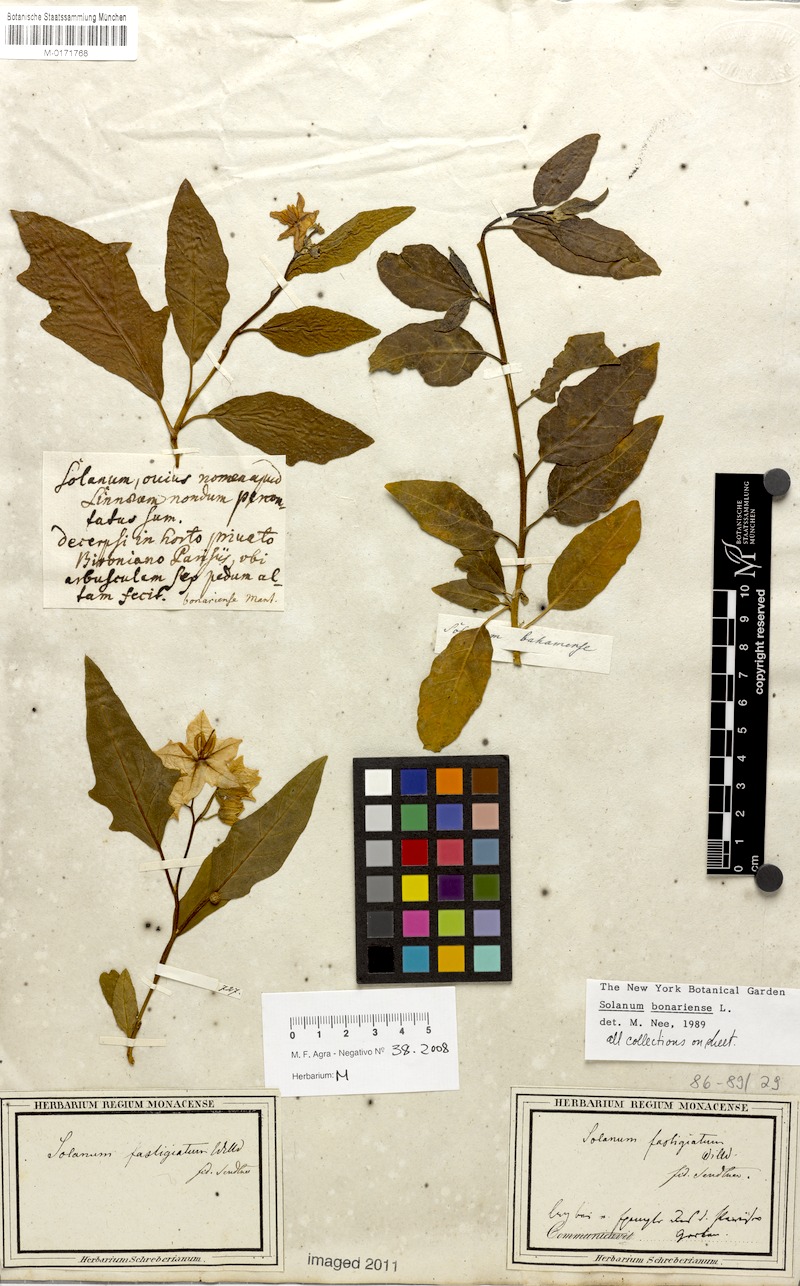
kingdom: Plantae
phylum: Tracheophyta
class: Magnoliopsida
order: Solanales
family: Solanaceae
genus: Solanum
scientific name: Solanum bonariense
